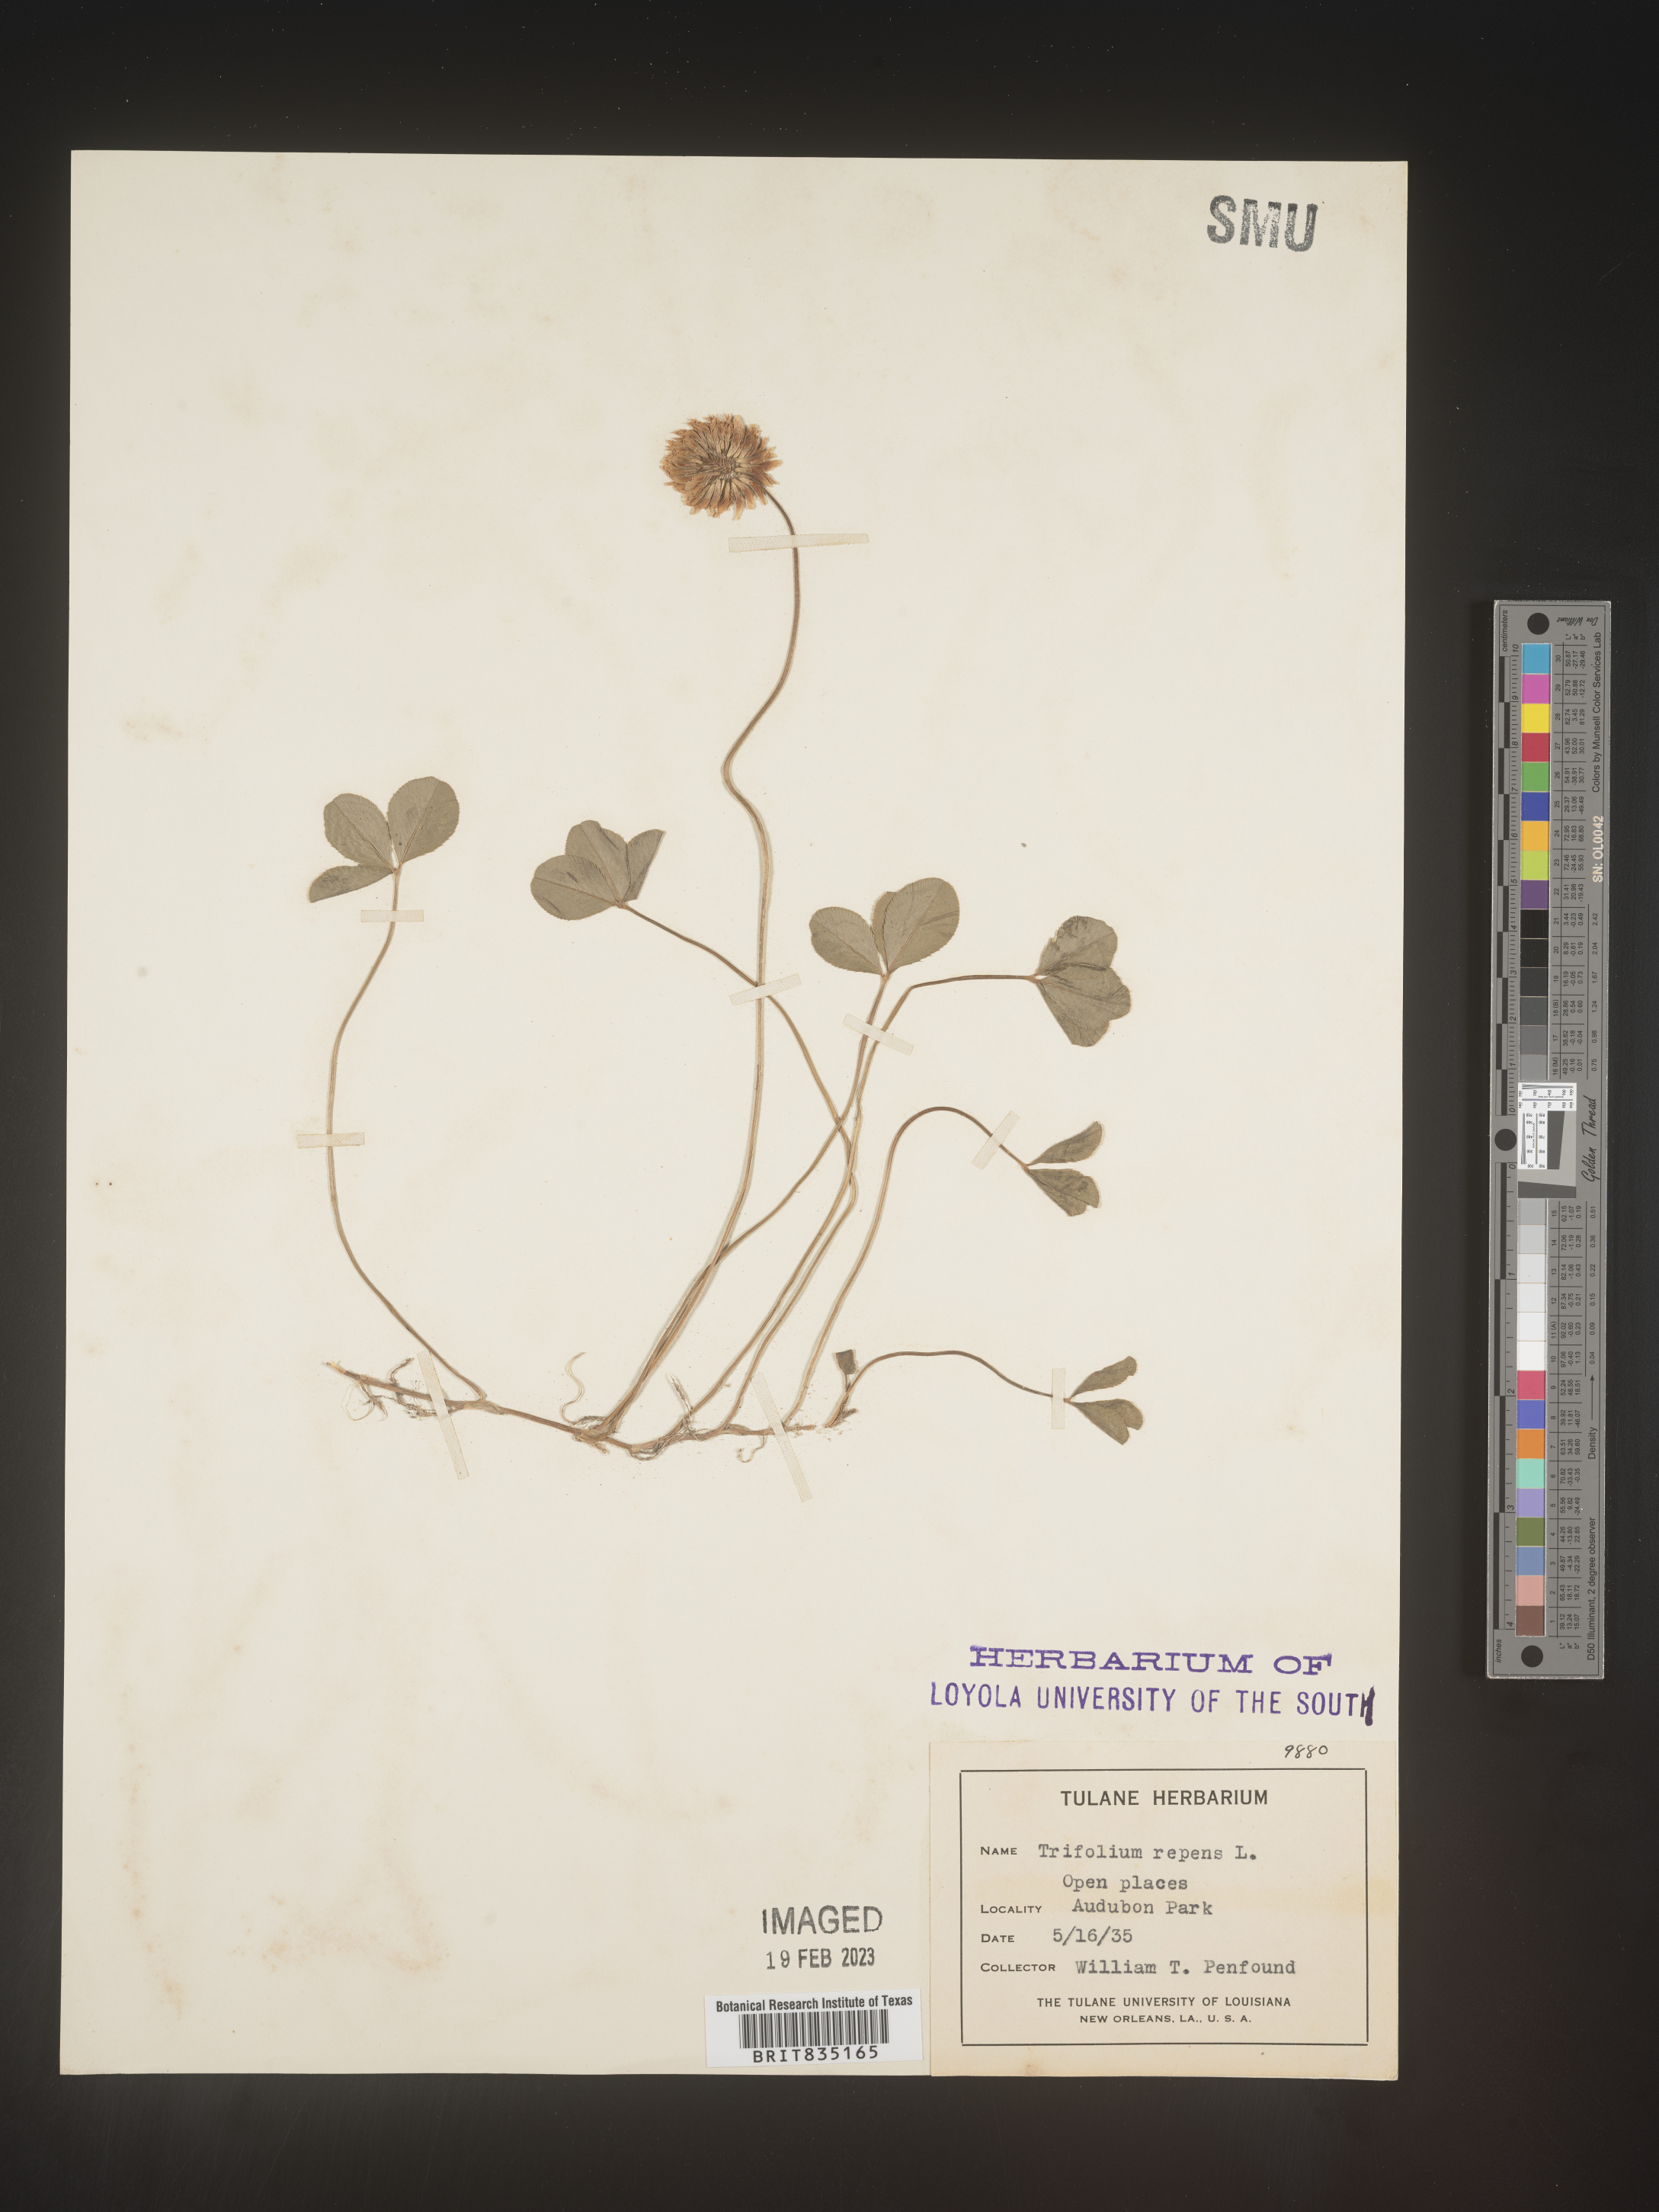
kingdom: Plantae
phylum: Tracheophyta
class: Magnoliopsida
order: Fabales
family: Fabaceae
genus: Trigonella
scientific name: Trigonella
